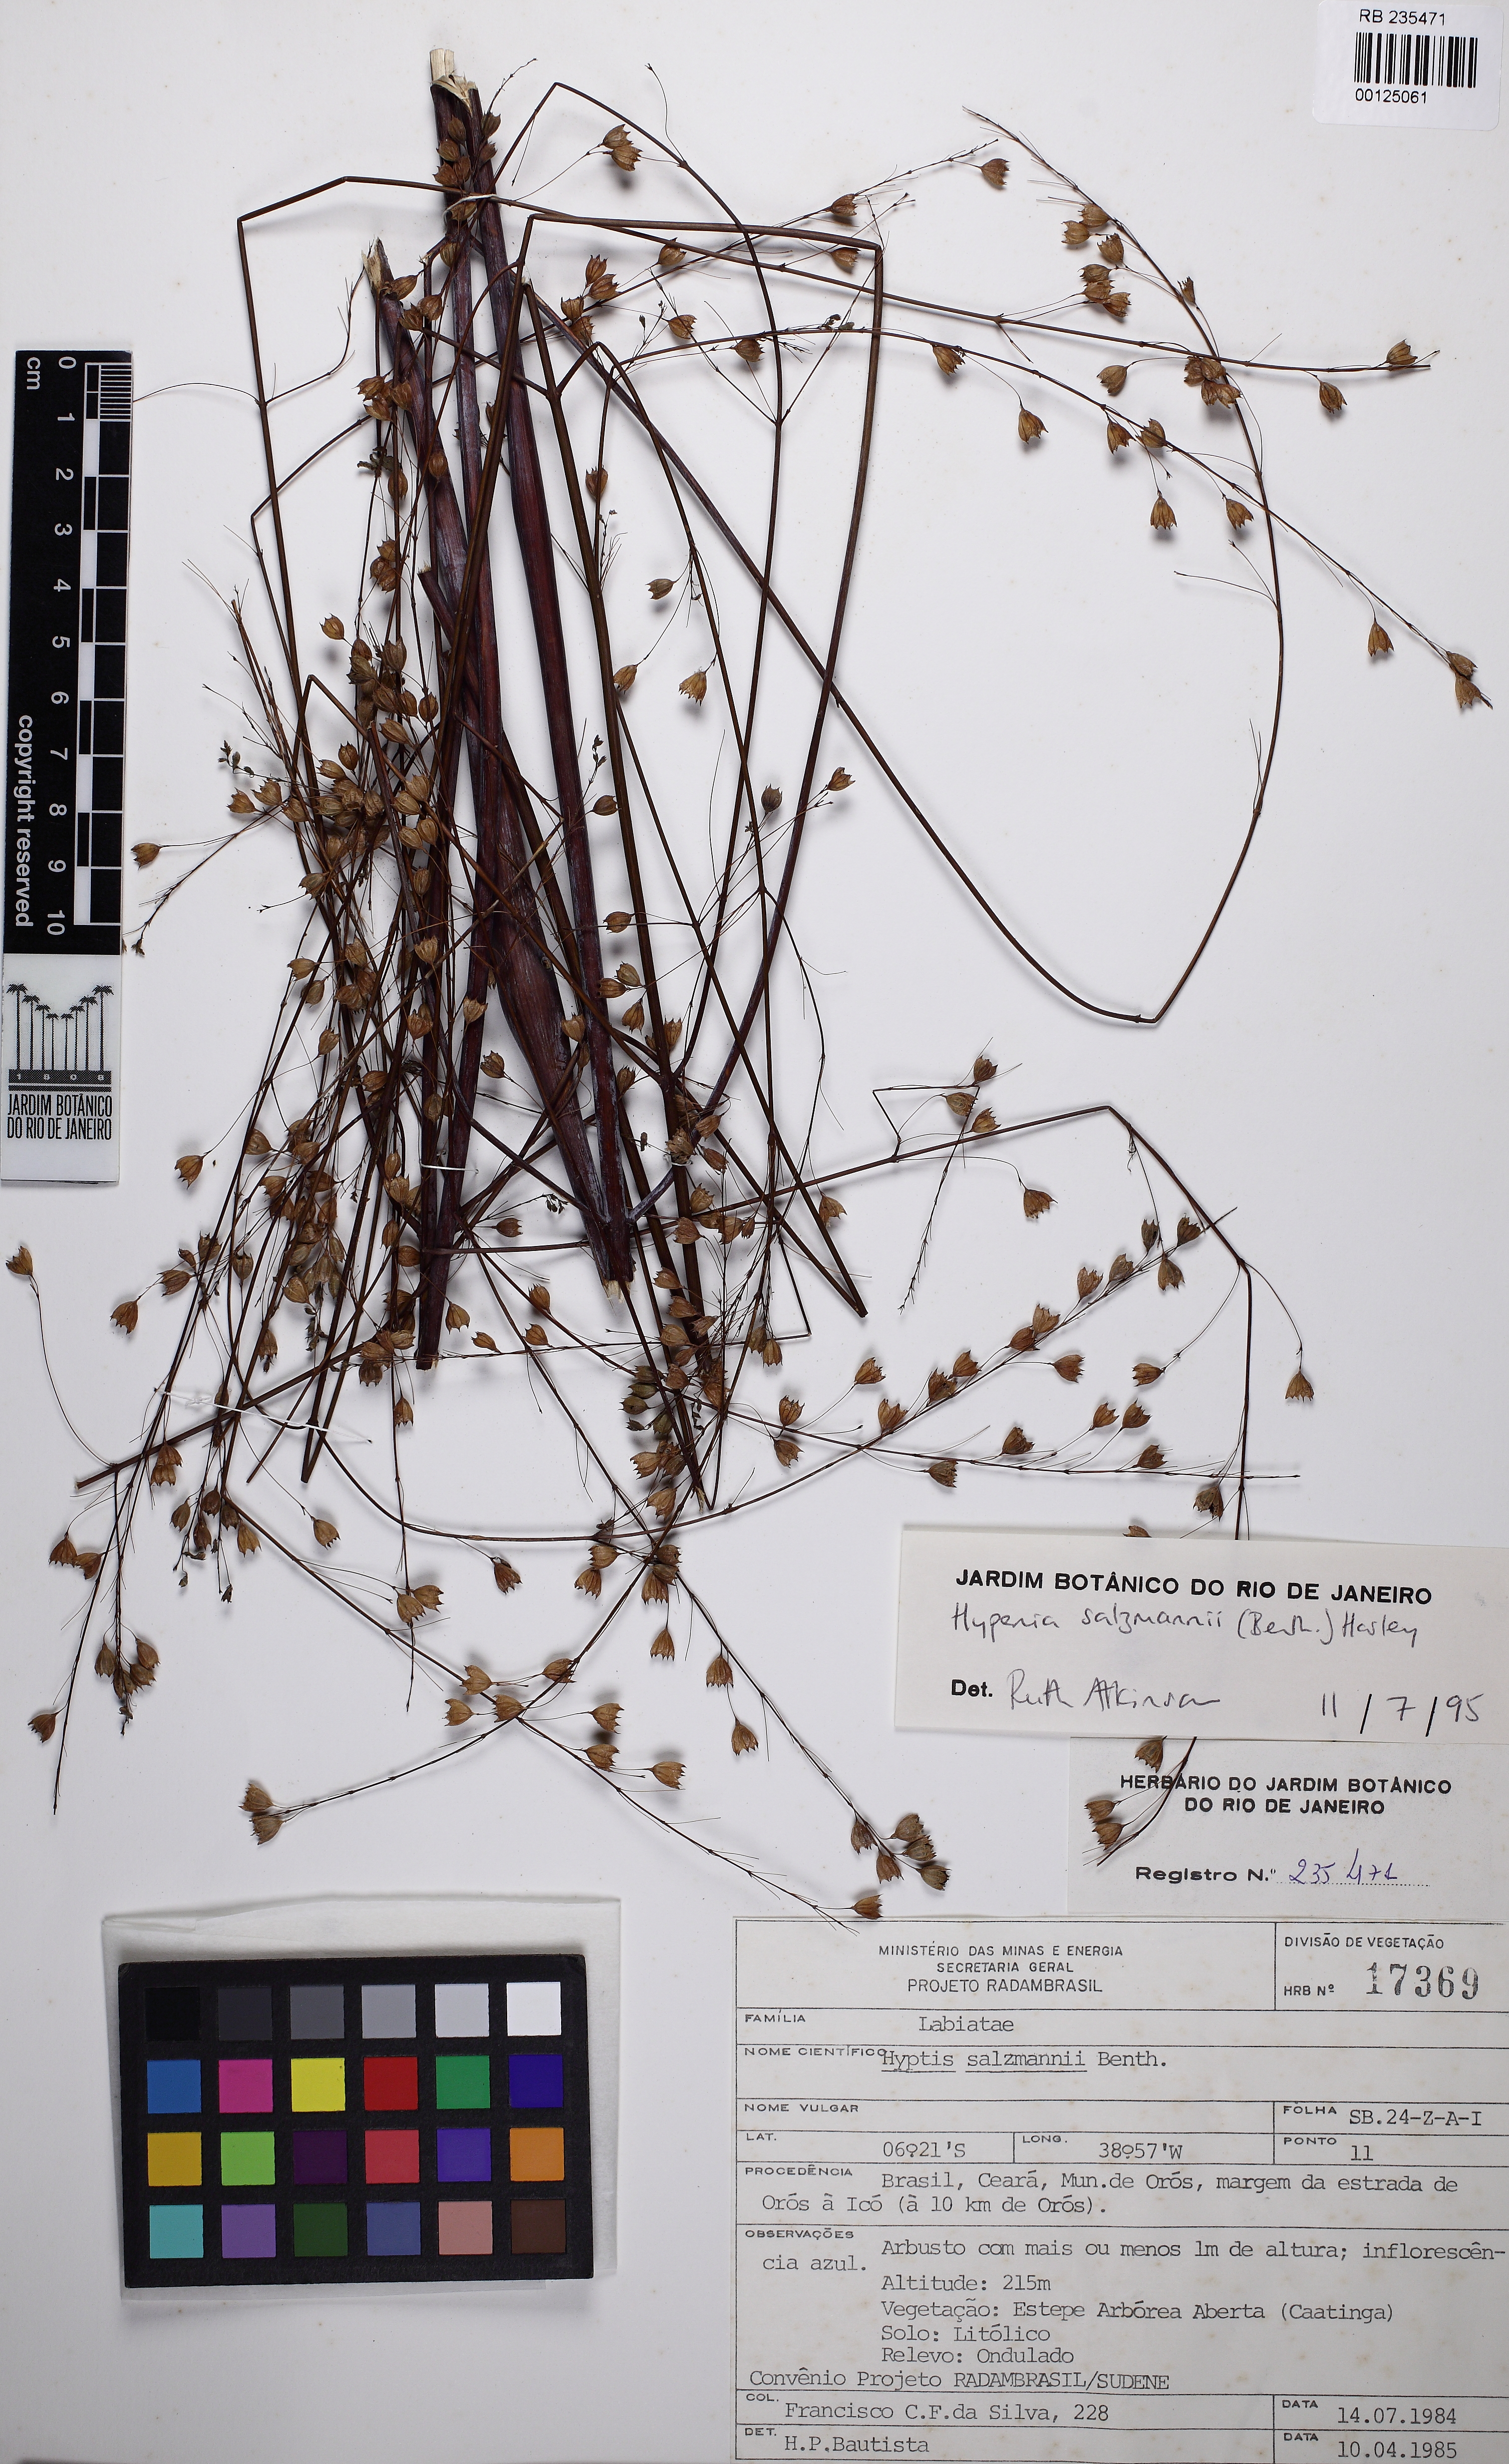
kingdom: Plantae
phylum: Tracheophyta
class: Magnoliopsida
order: Lamiales
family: Lamiaceae
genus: Hypenia
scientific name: Hypenia salzmannii
